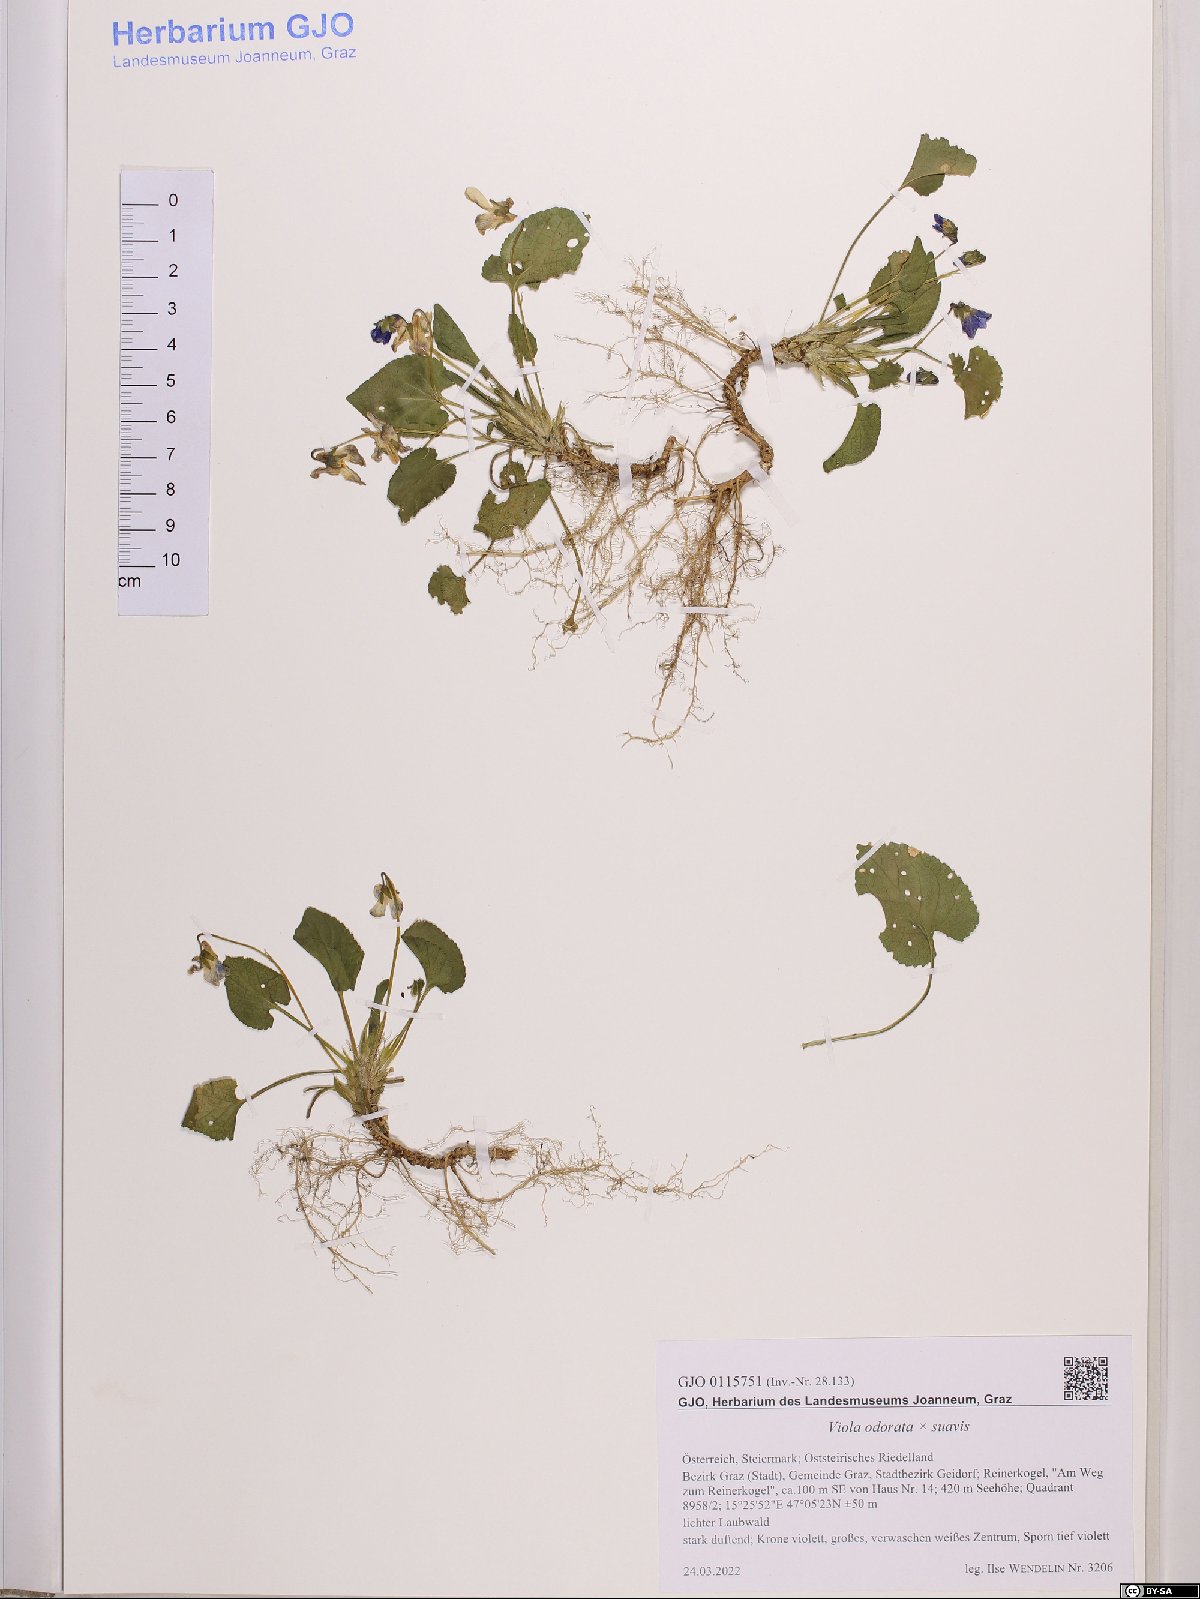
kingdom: Plantae
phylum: Tracheophyta
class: Magnoliopsida
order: Malpighiales
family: Violaceae
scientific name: Violaceae
